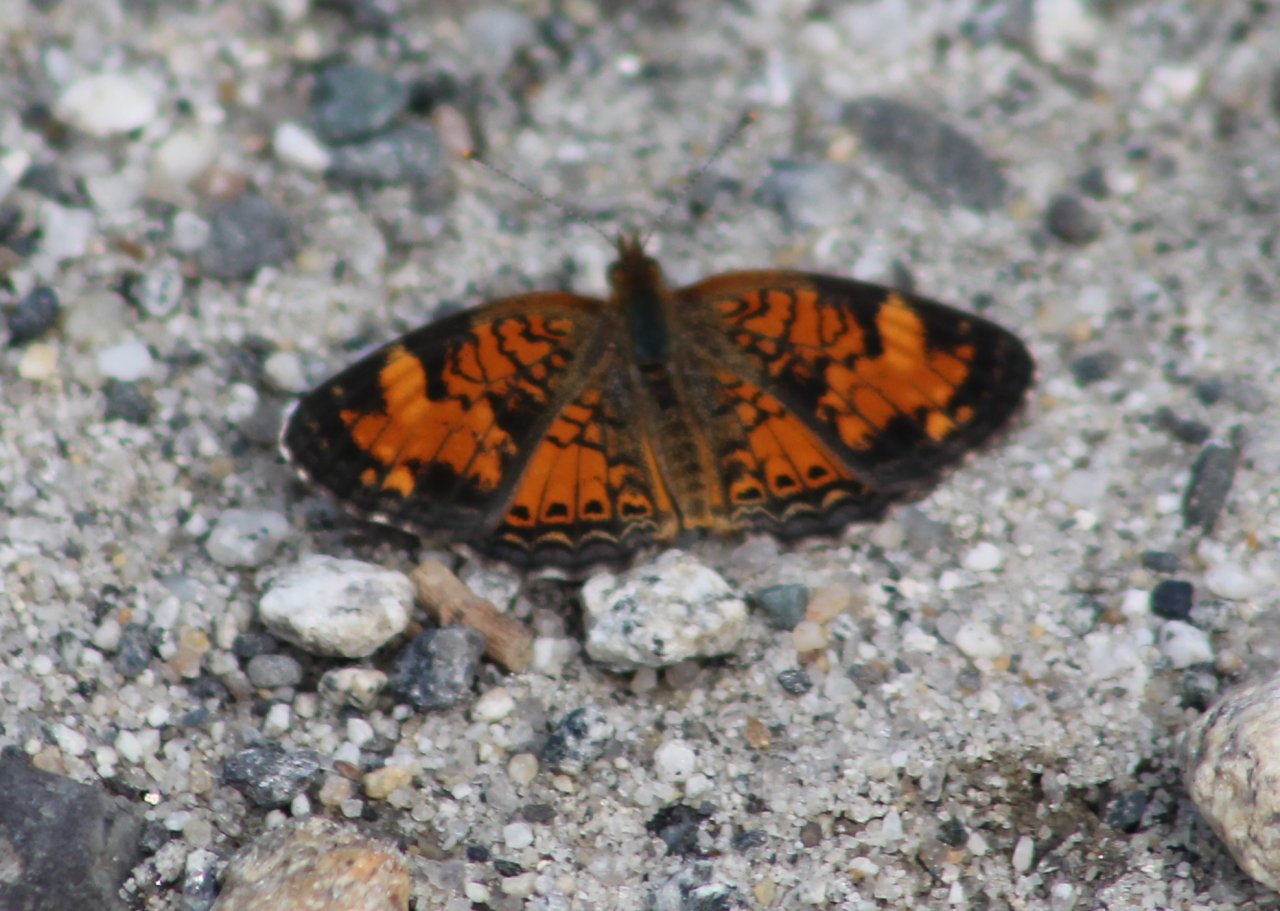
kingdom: Animalia
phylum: Arthropoda
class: Insecta
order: Lepidoptera
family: Nymphalidae
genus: Phyciodes
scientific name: Phyciodes tharos
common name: Northern Crescent
